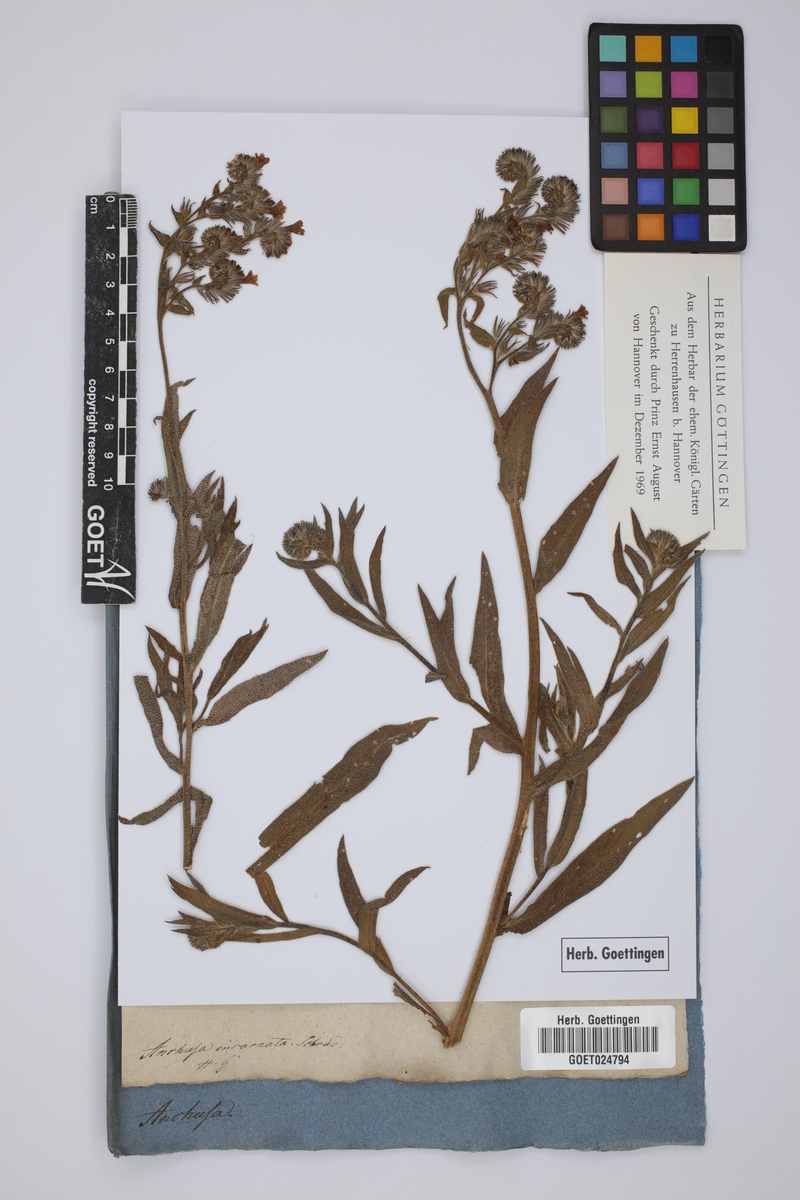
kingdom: Plantae
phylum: Tracheophyta
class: Magnoliopsida
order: Boraginales
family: Boraginaceae
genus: Anchusa
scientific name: Anchusa officinalis
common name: Alkanet
